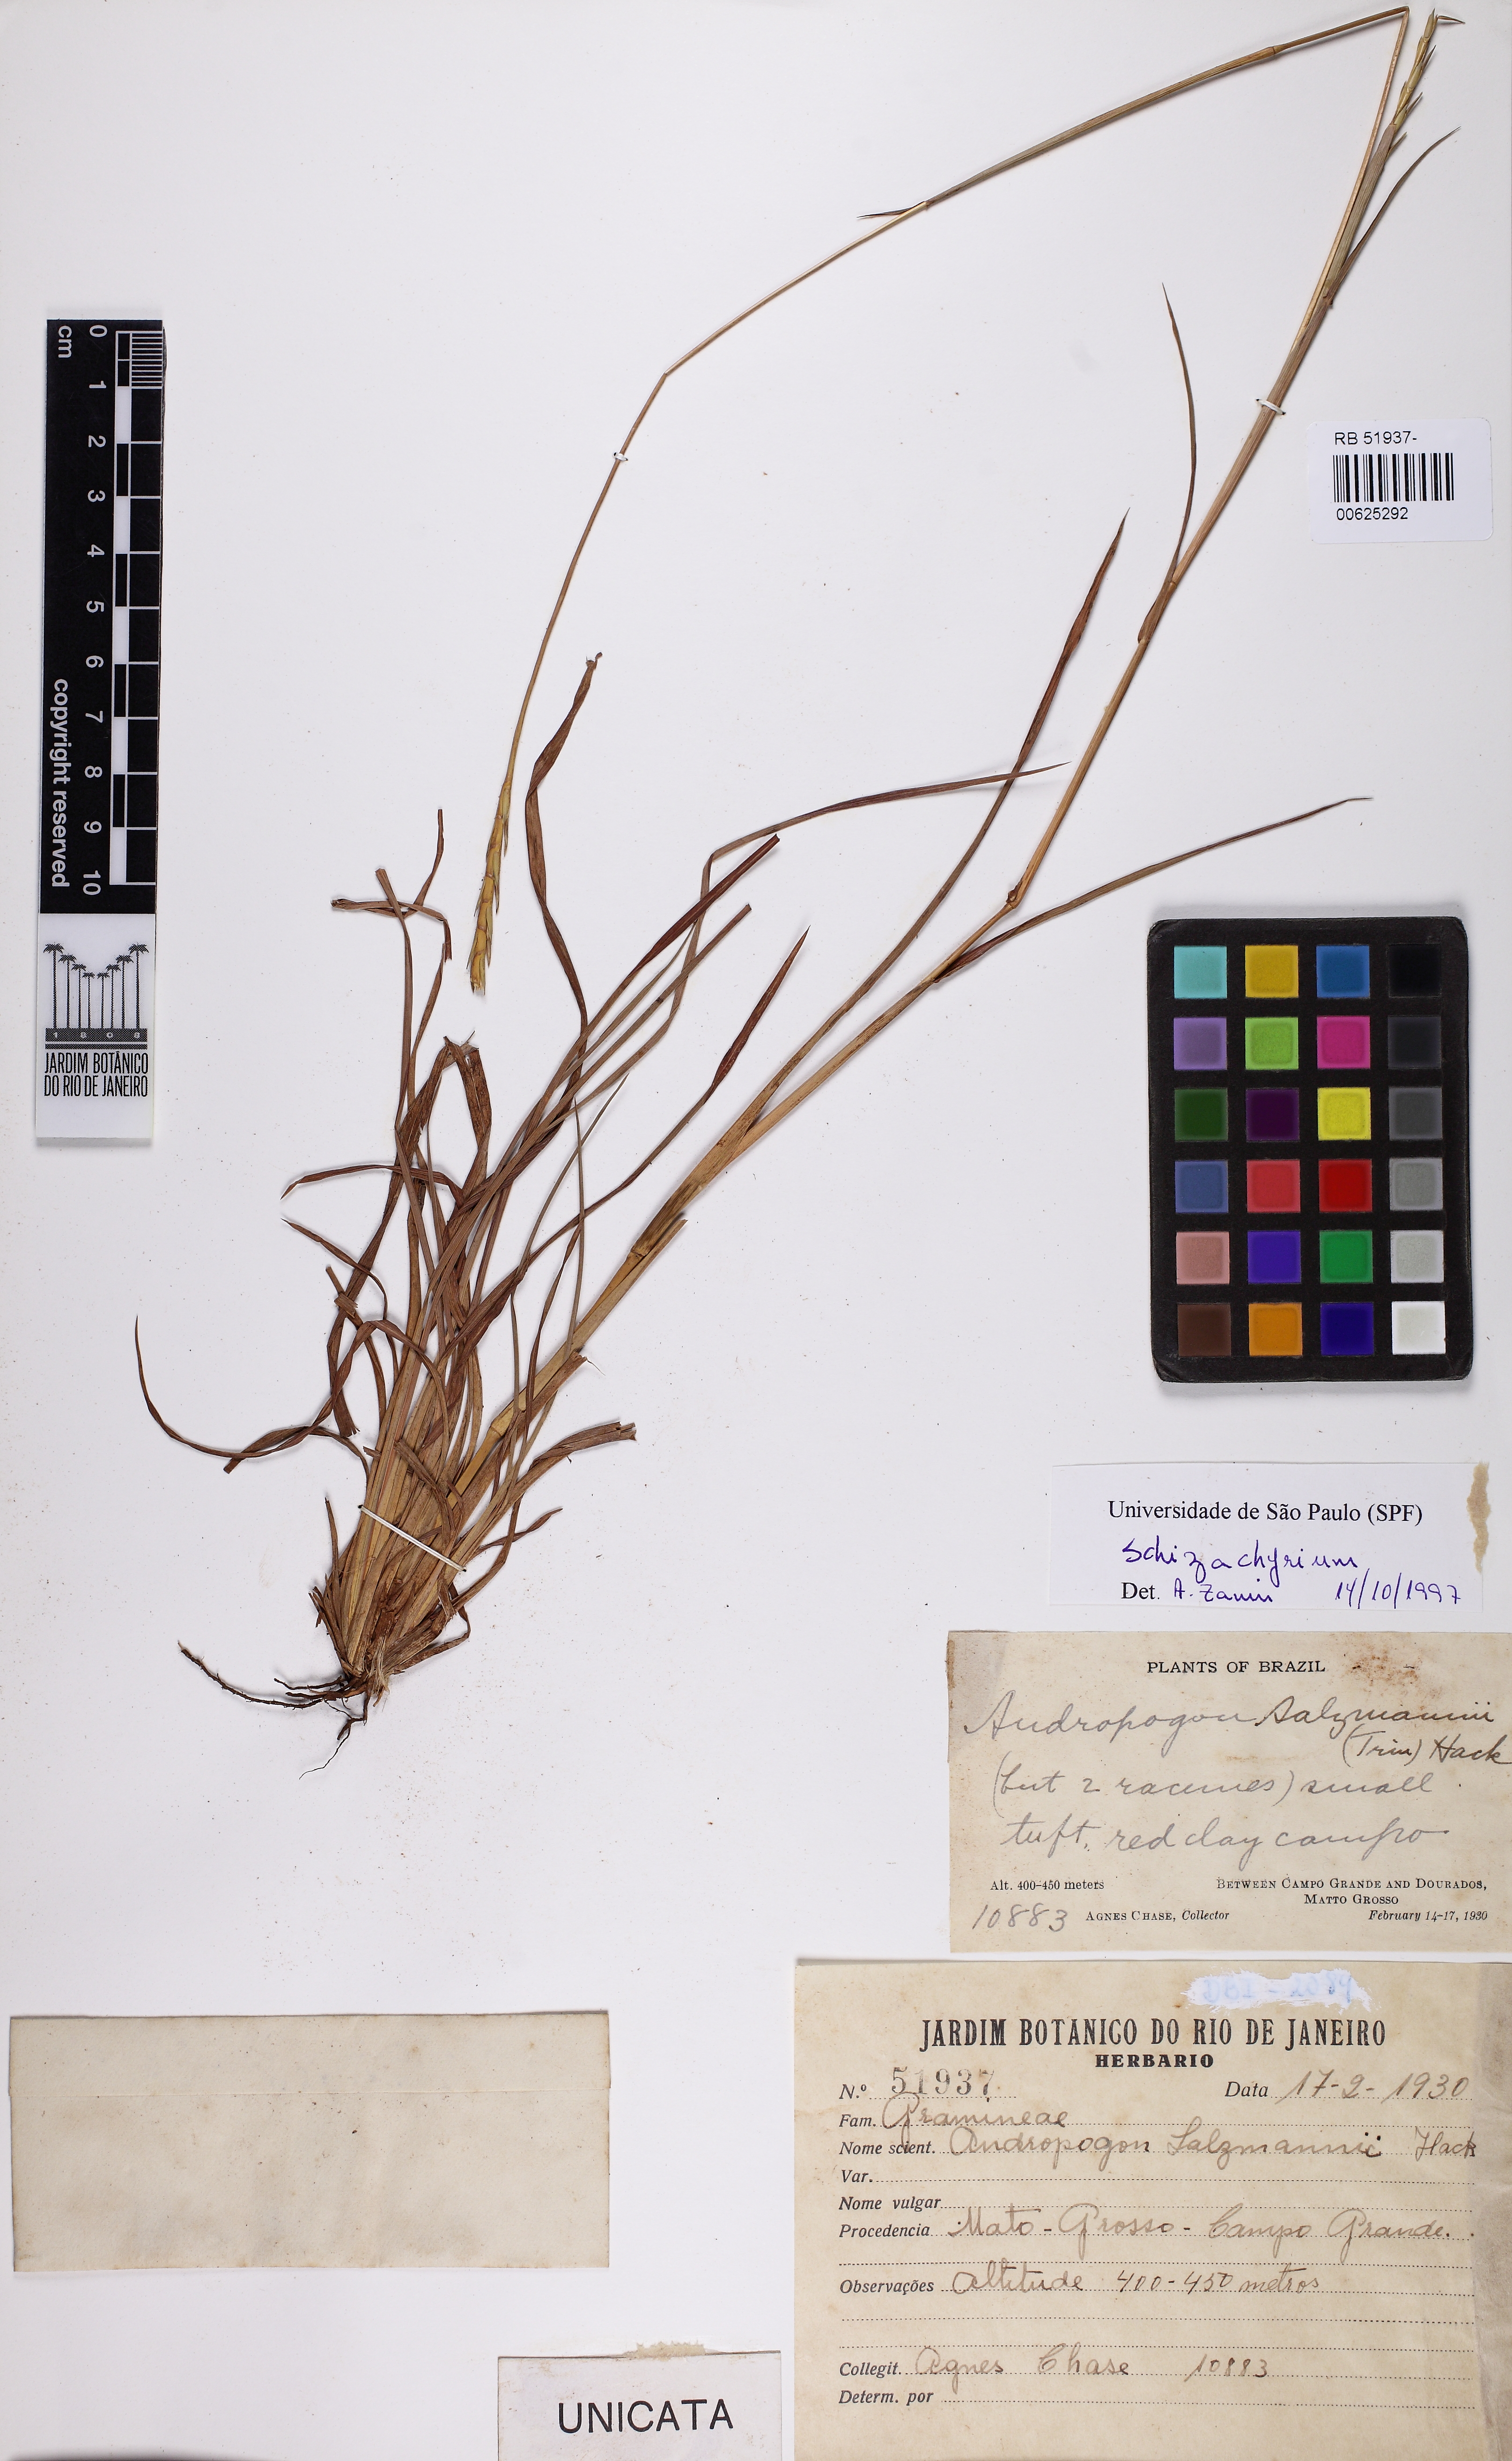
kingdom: Plantae
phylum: Tracheophyta
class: Liliopsida
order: Poales
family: Poaceae
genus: Schizachyrium
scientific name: Schizachyrium
